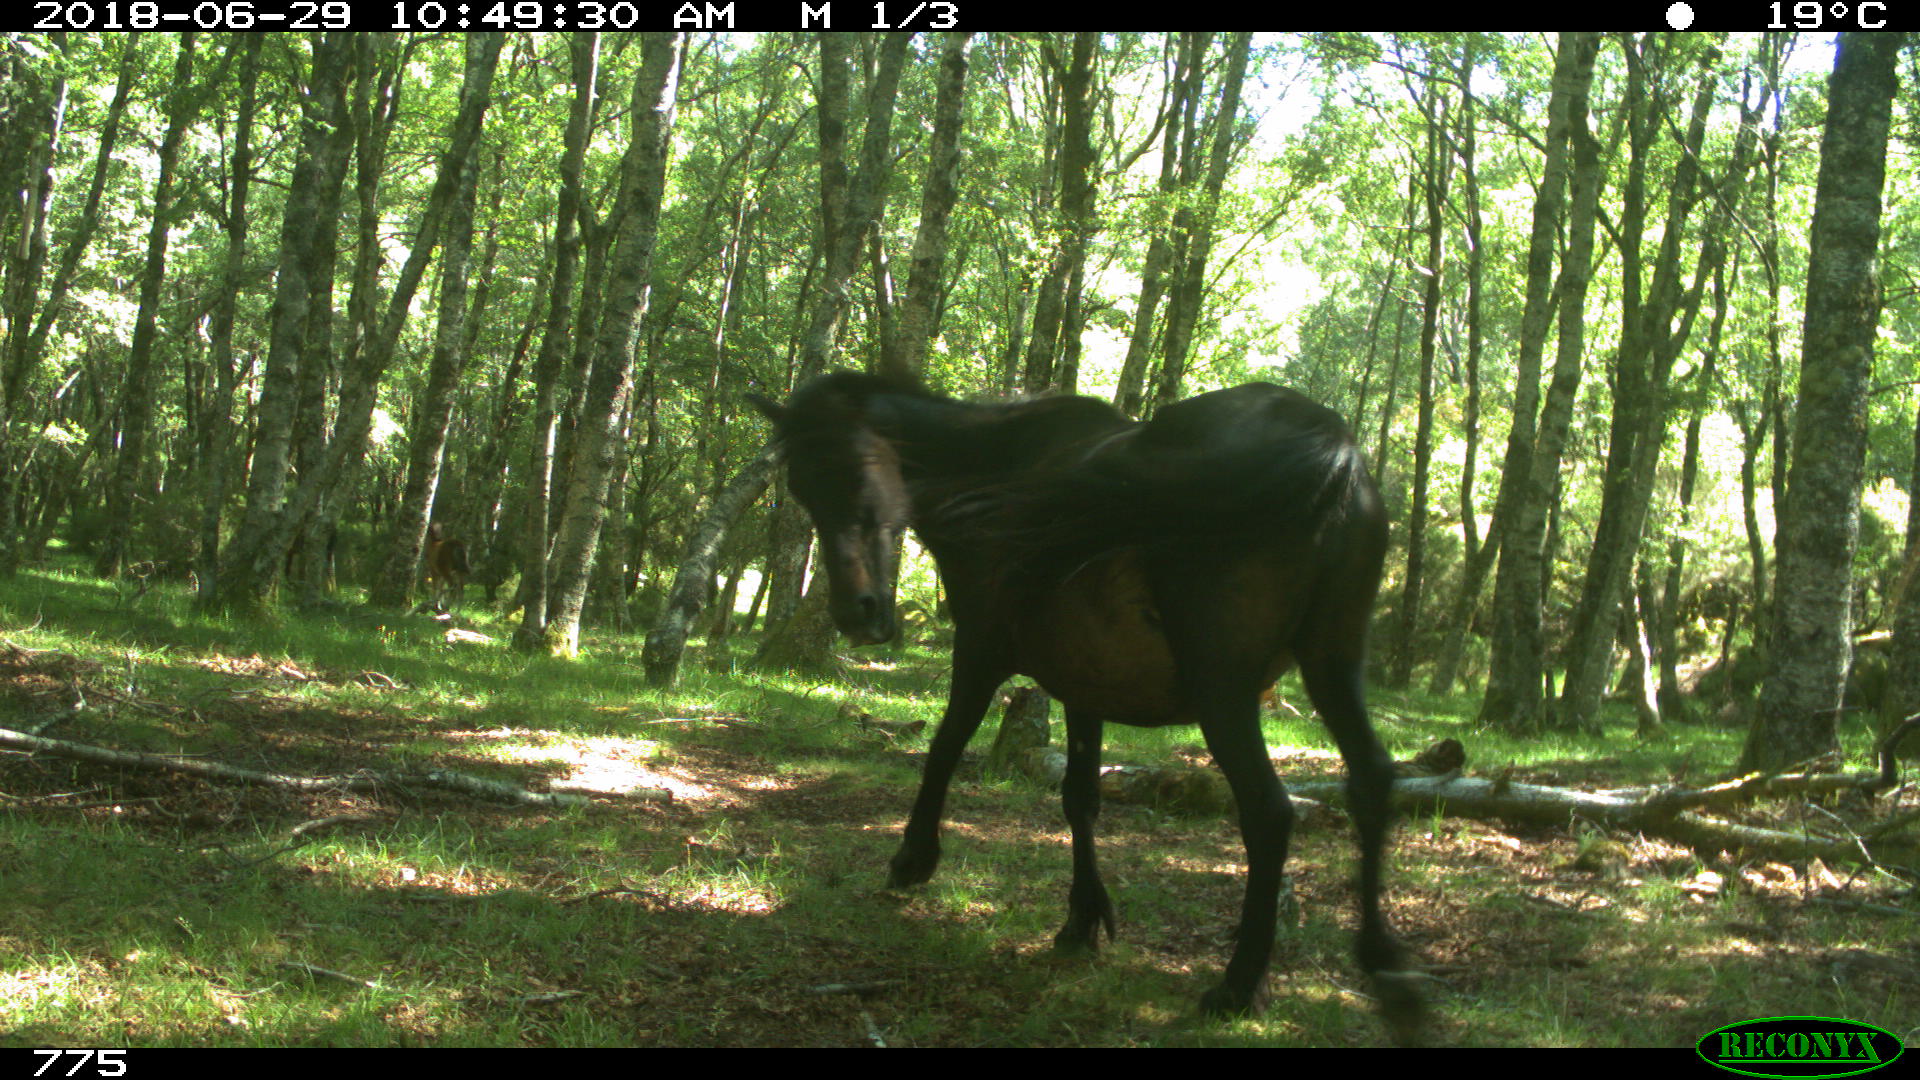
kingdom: Animalia
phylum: Chordata
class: Mammalia
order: Perissodactyla
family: Equidae
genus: Equus
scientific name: Equus caballus
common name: Horse
